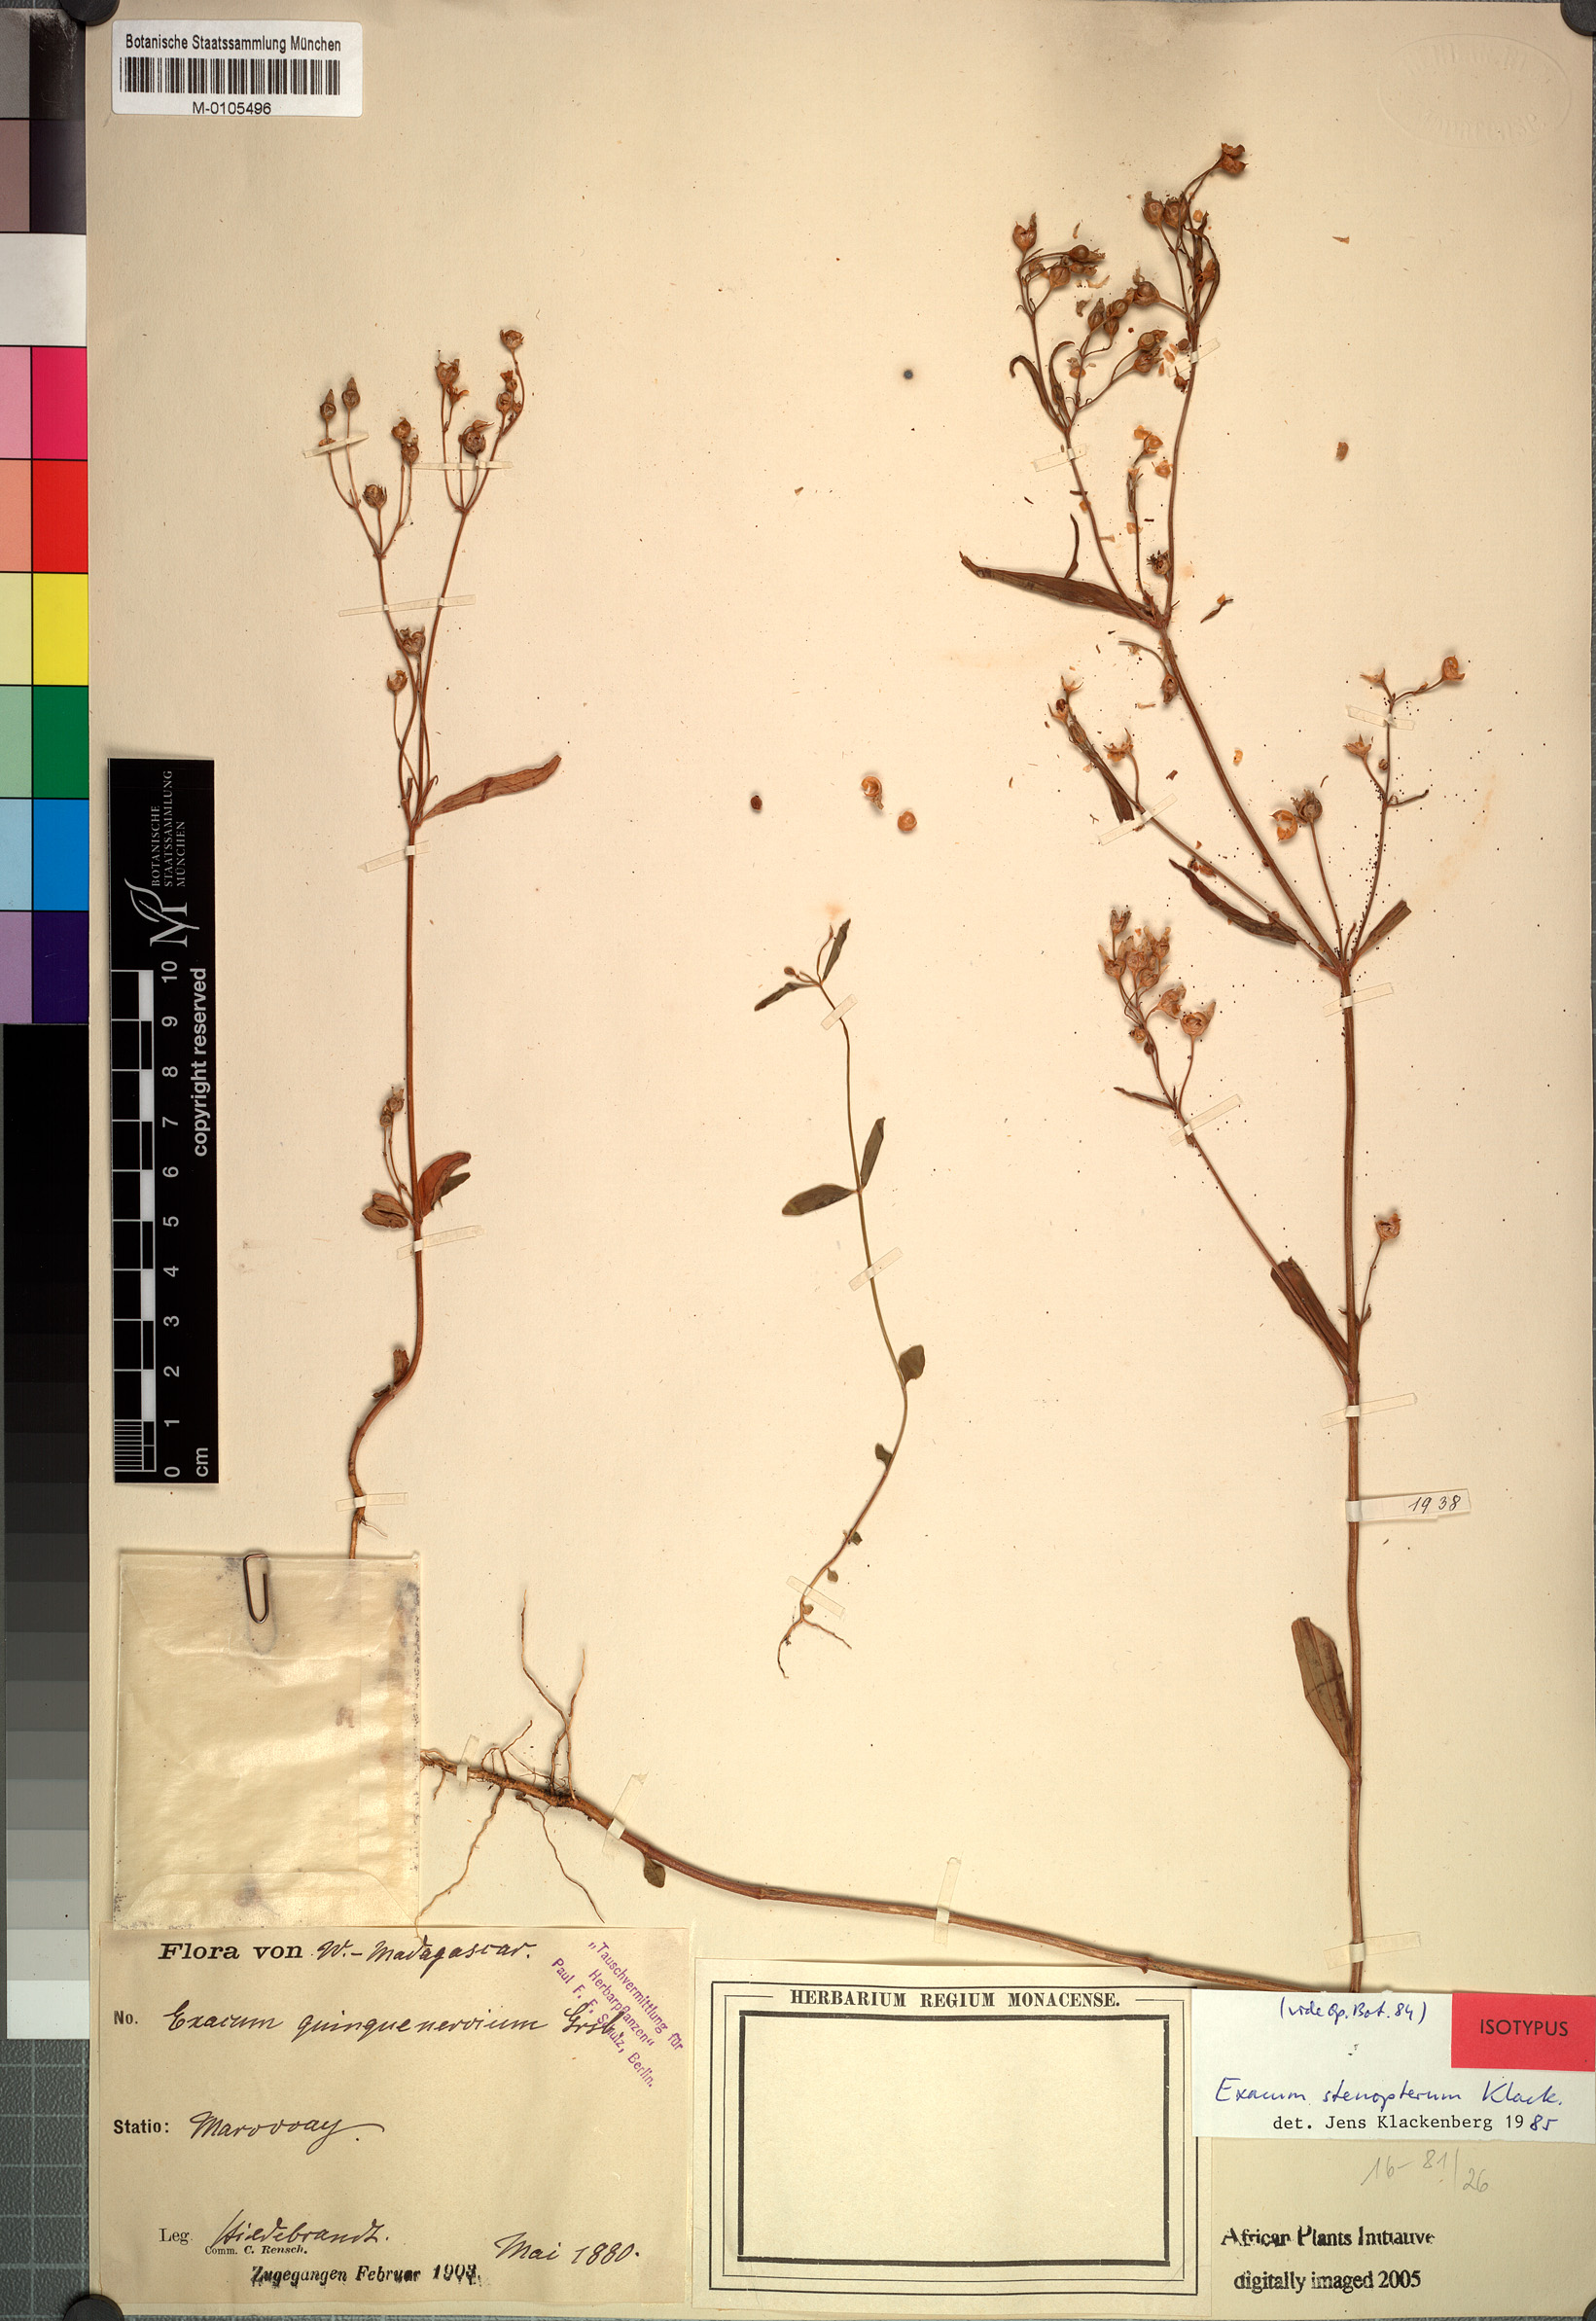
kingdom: Plantae
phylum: Tracheophyta
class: Magnoliopsida
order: Gentianales
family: Gentianaceae
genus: Exacum
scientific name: Exacum stenopterum
